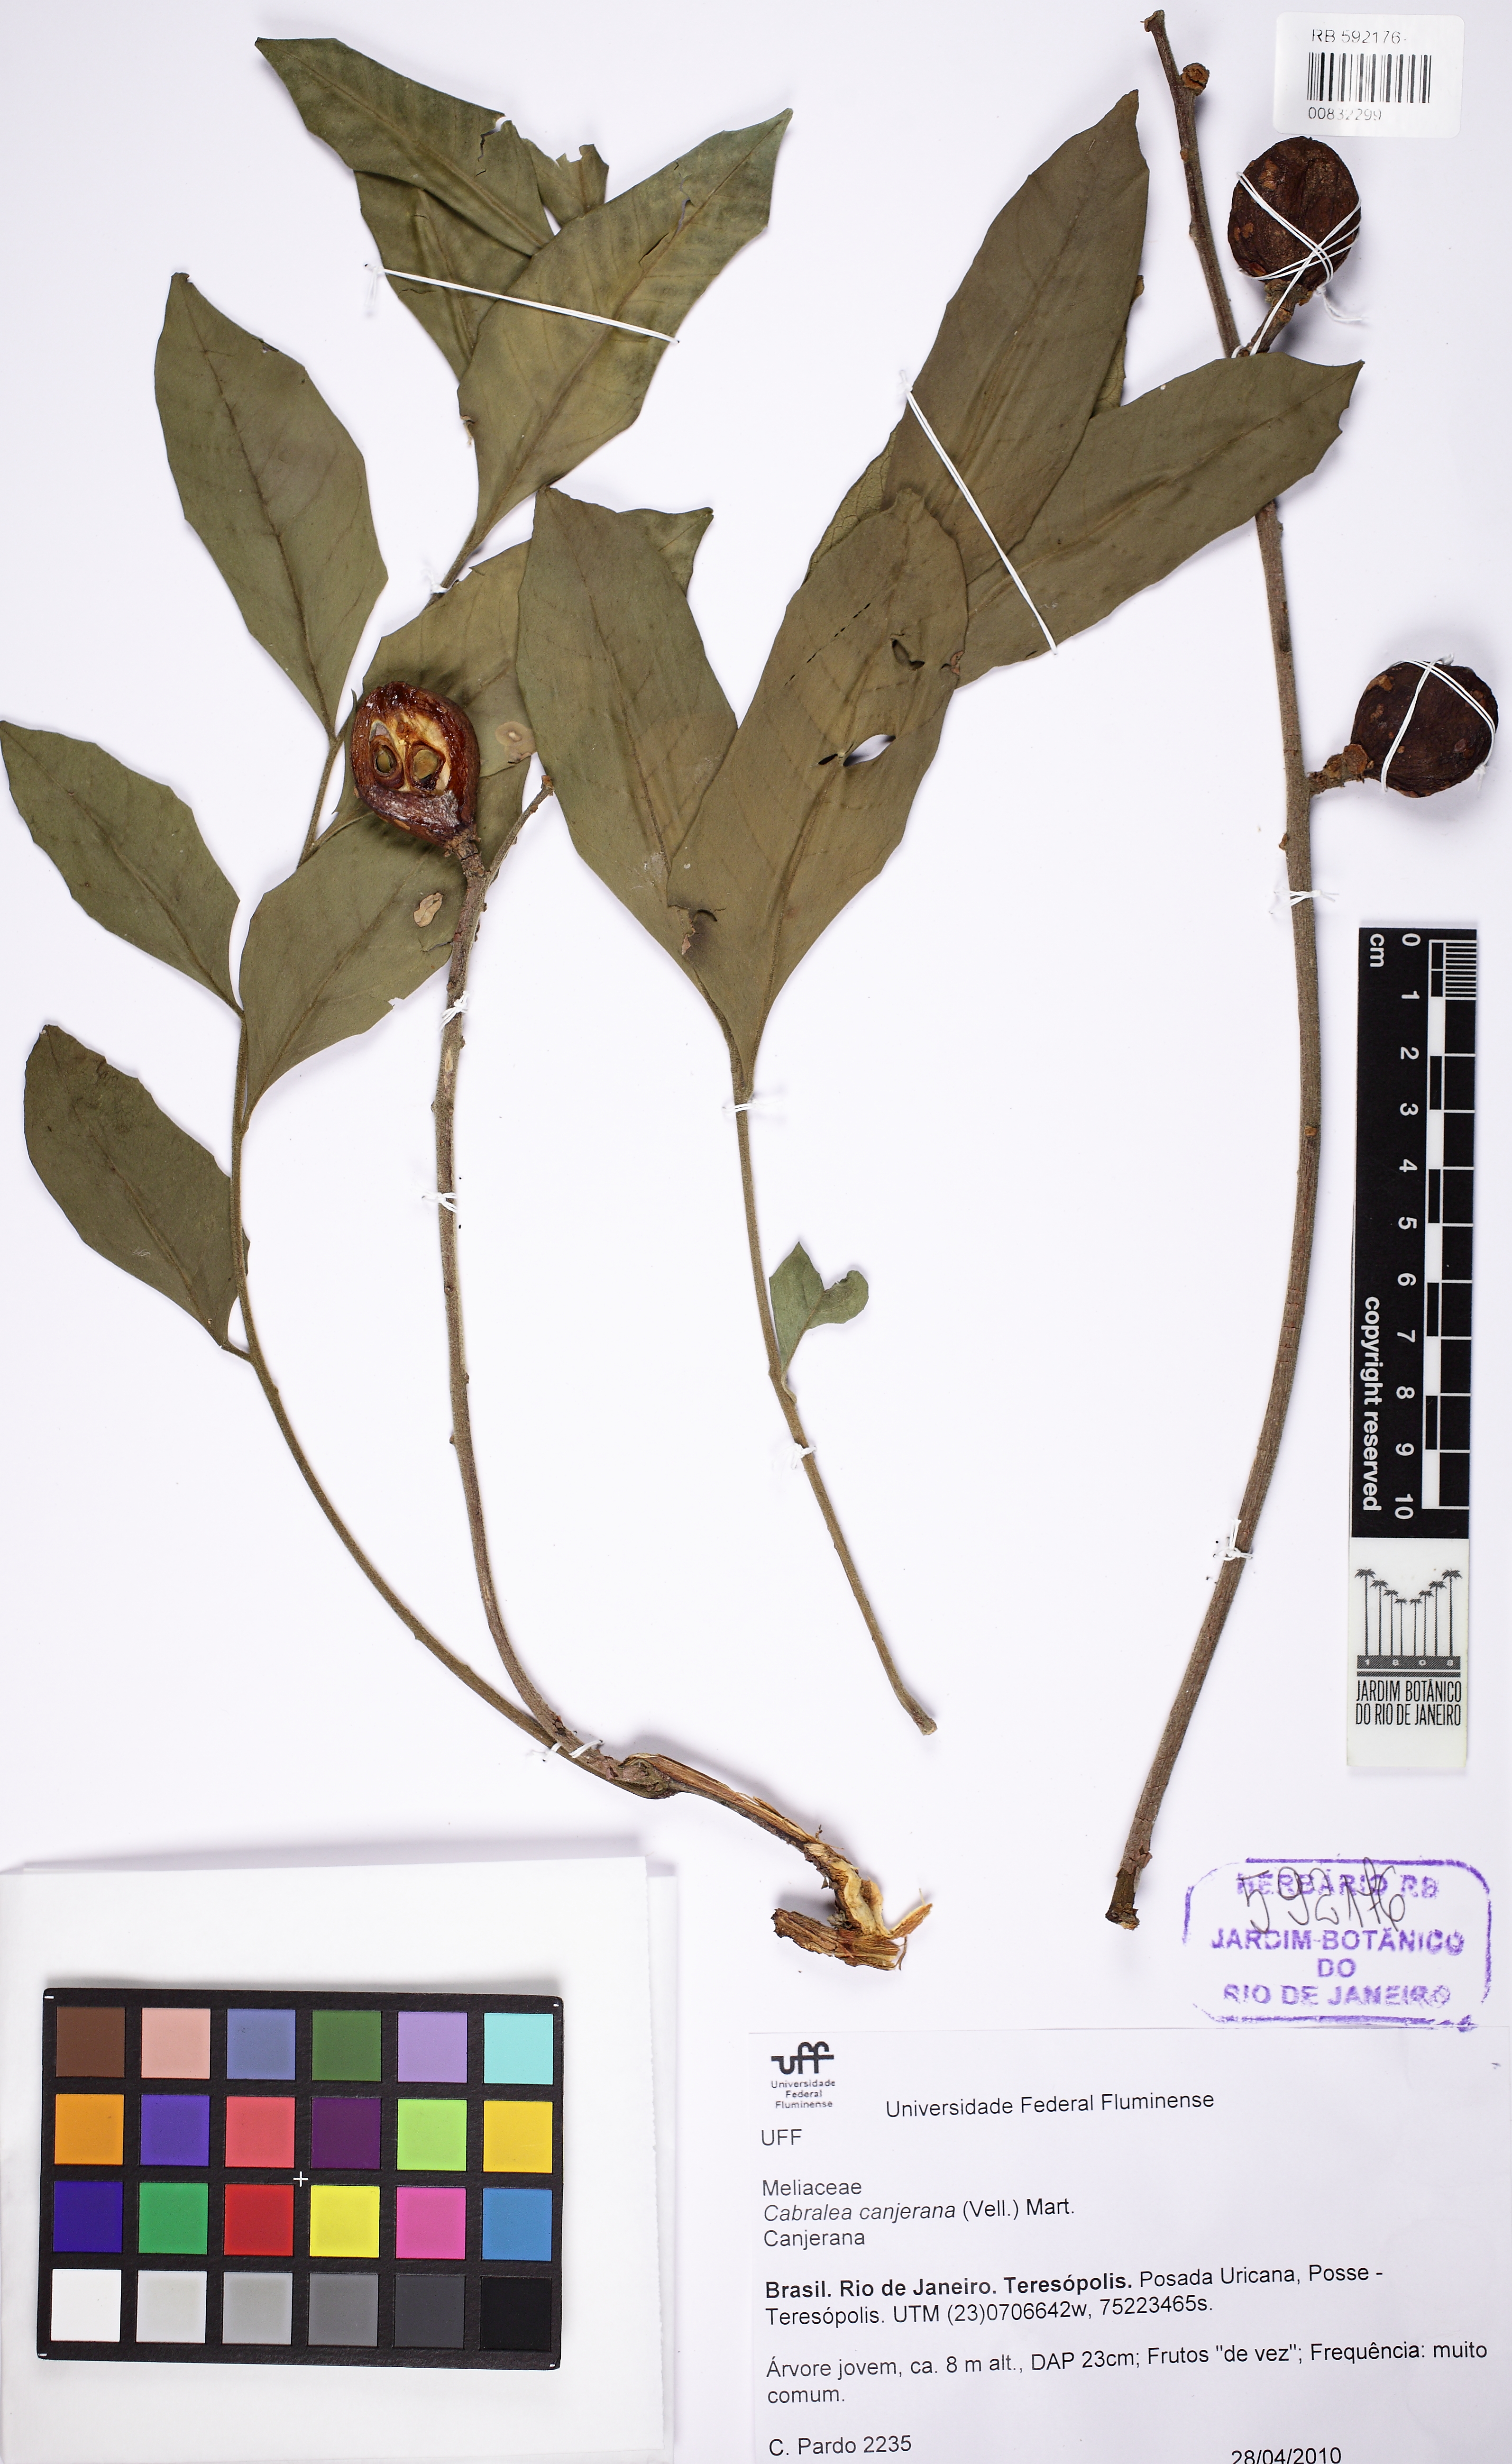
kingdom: Plantae
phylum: Tracheophyta
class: Magnoliopsida
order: Sapindales
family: Meliaceae
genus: Cabralea
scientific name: Cabralea canjerana
